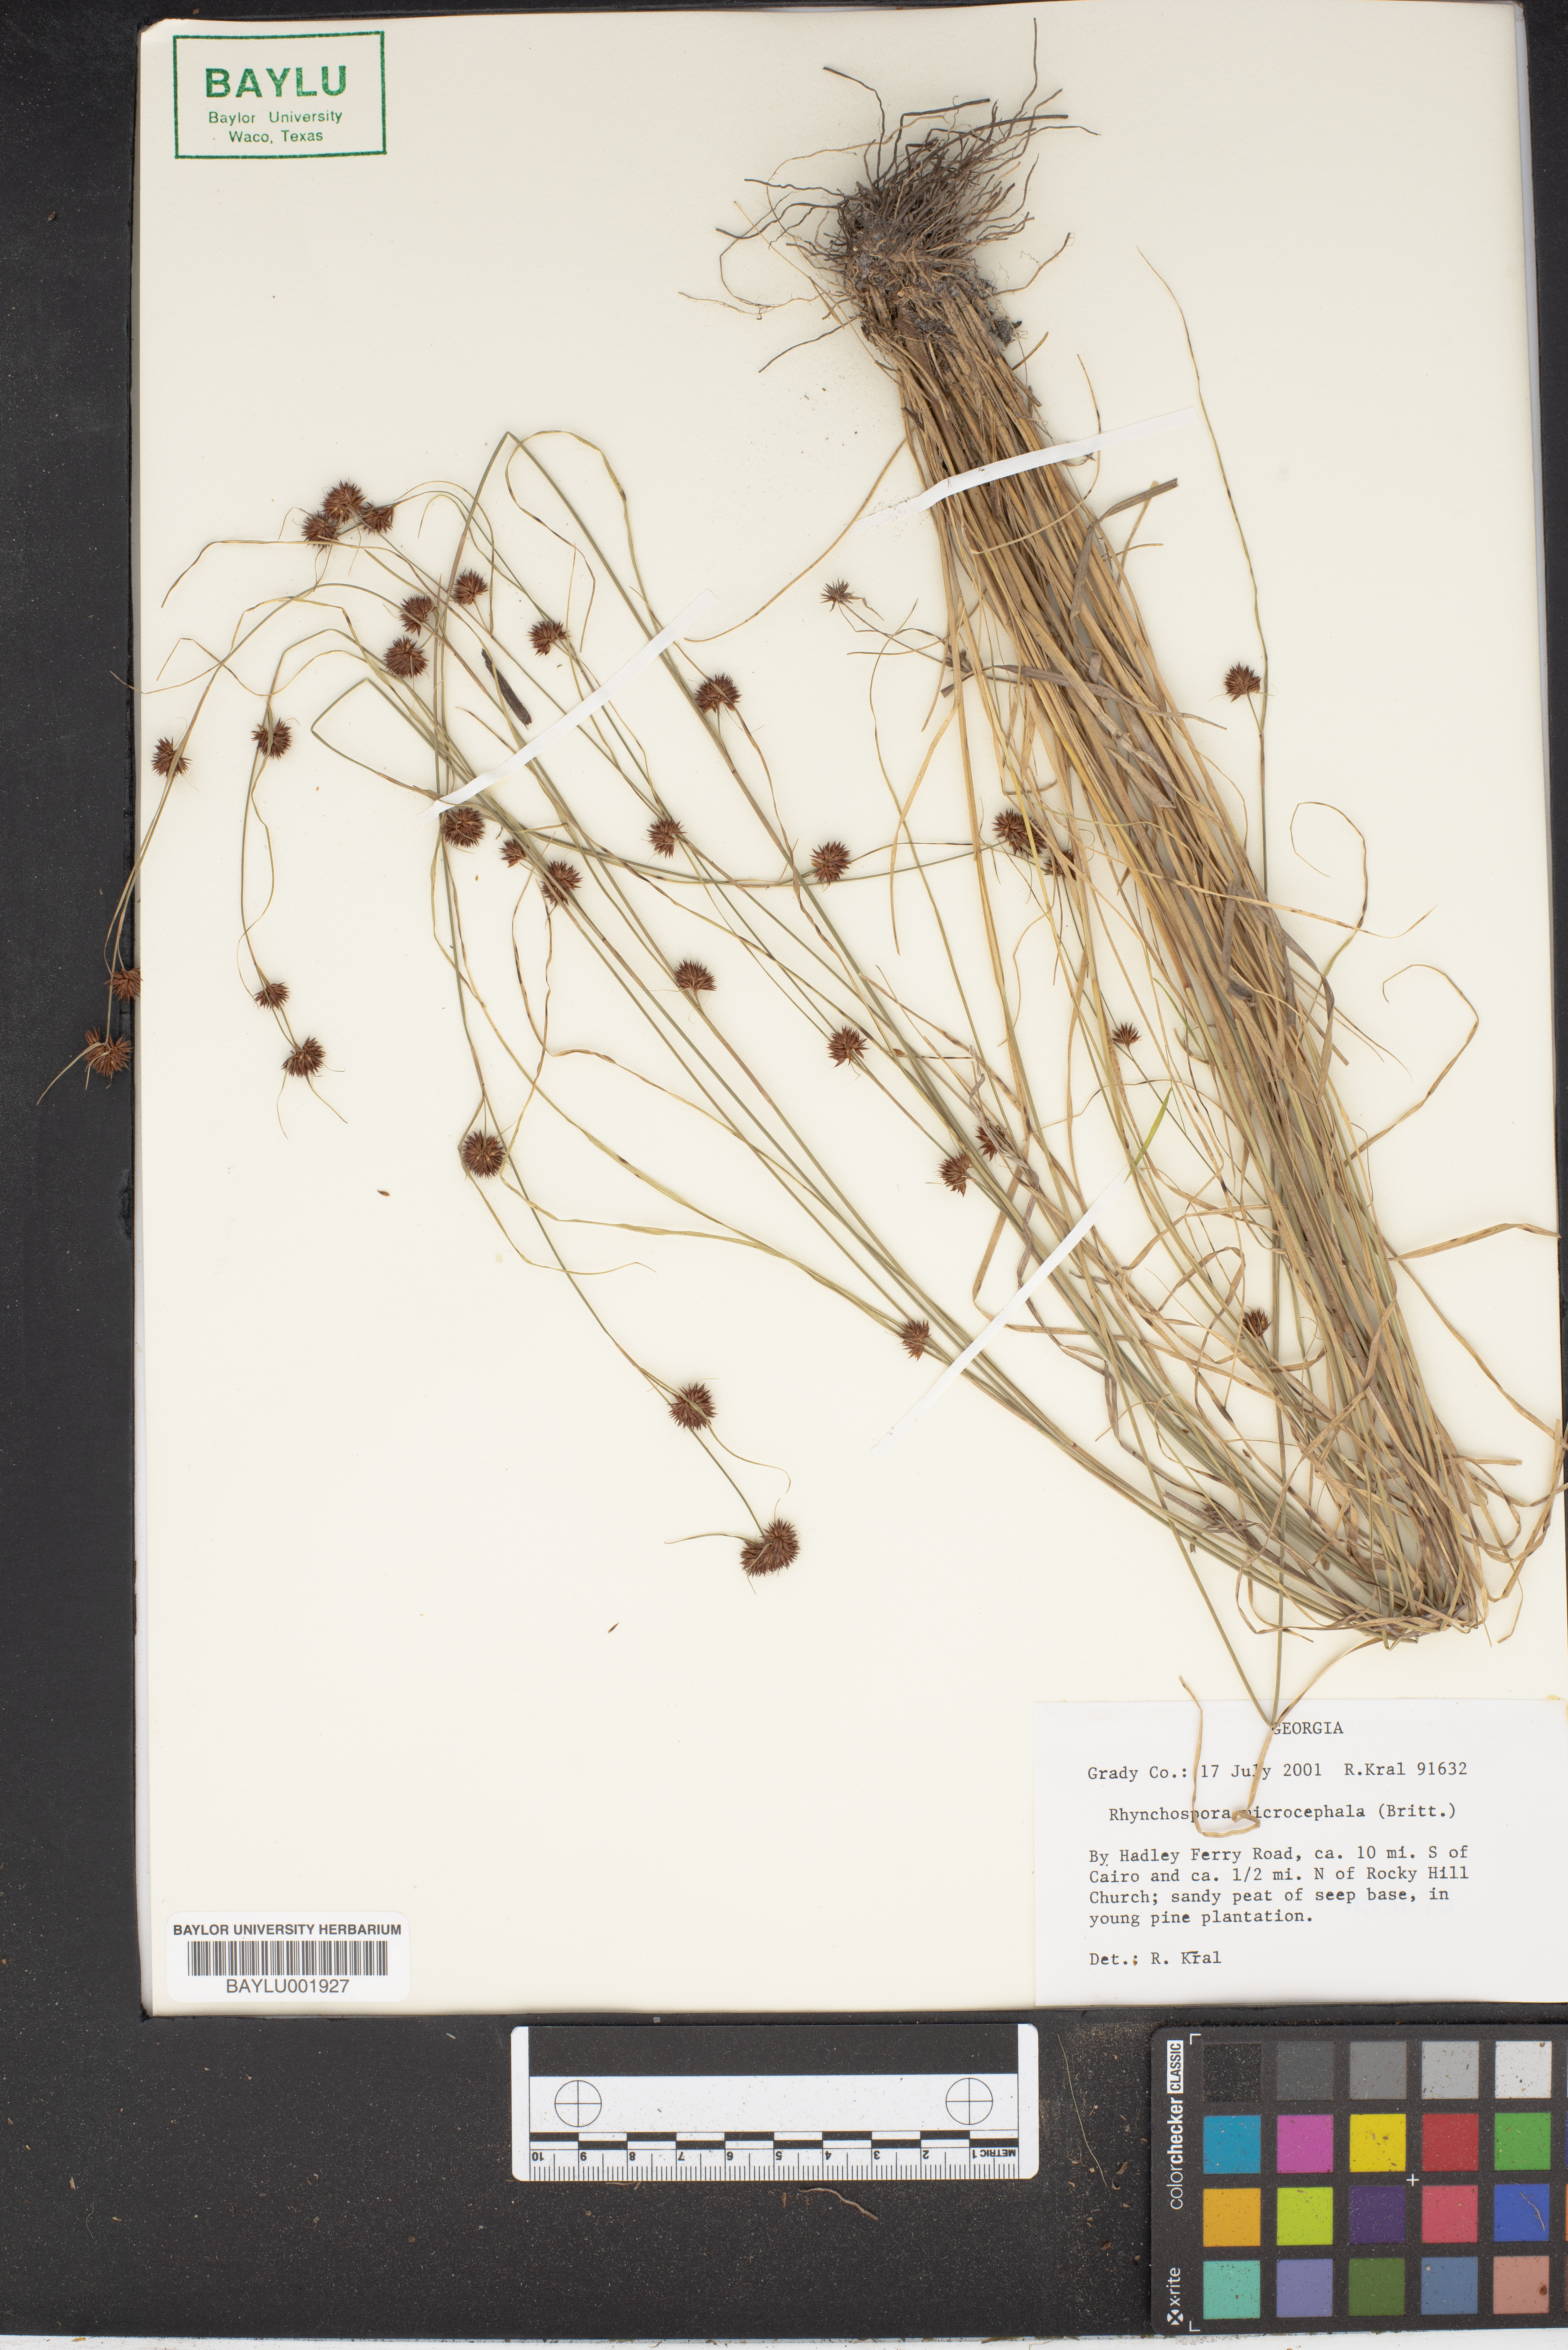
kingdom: Plantae
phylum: Tracheophyta
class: Liliopsida
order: Poales
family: Cyperaceae
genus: Rhynchospora
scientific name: Rhynchospora microcephala
